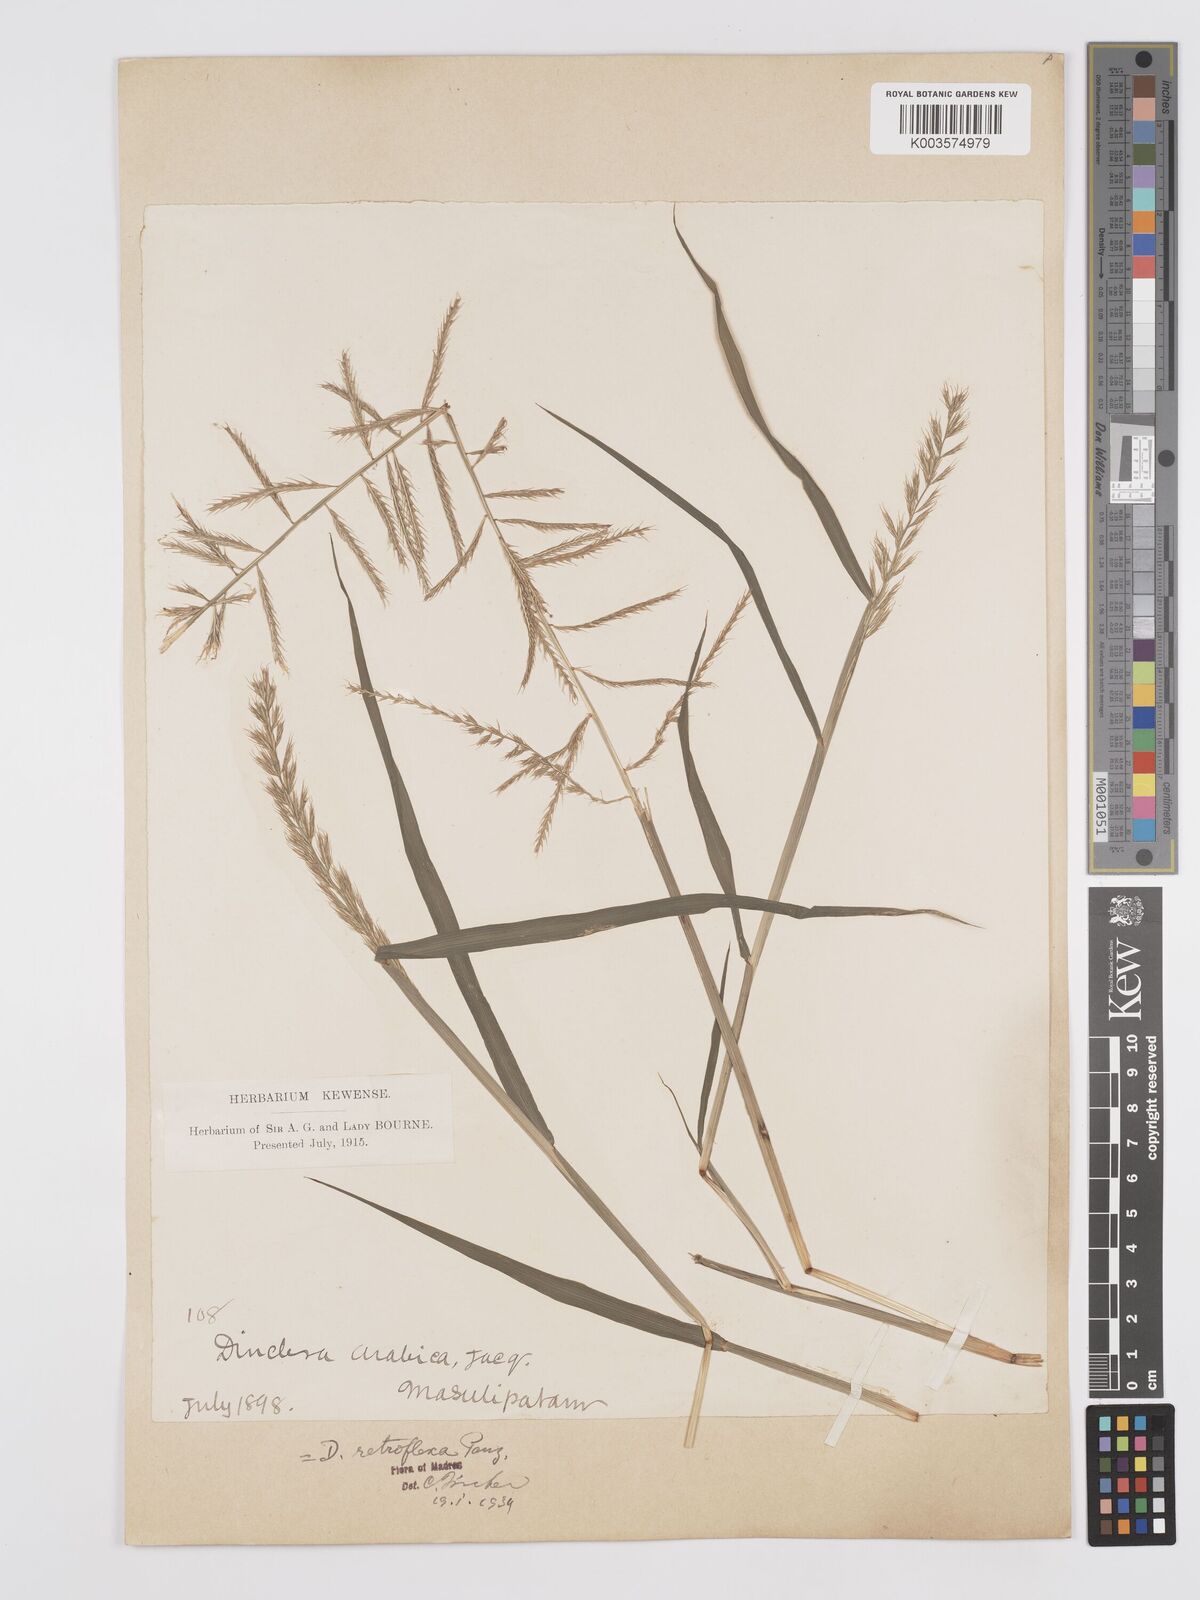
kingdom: Plantae
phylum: Tracheophyta
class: Liliopsida
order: Poales
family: Poaceae
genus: Dinebra
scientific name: Dinebra retroflexa
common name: Viper grass
